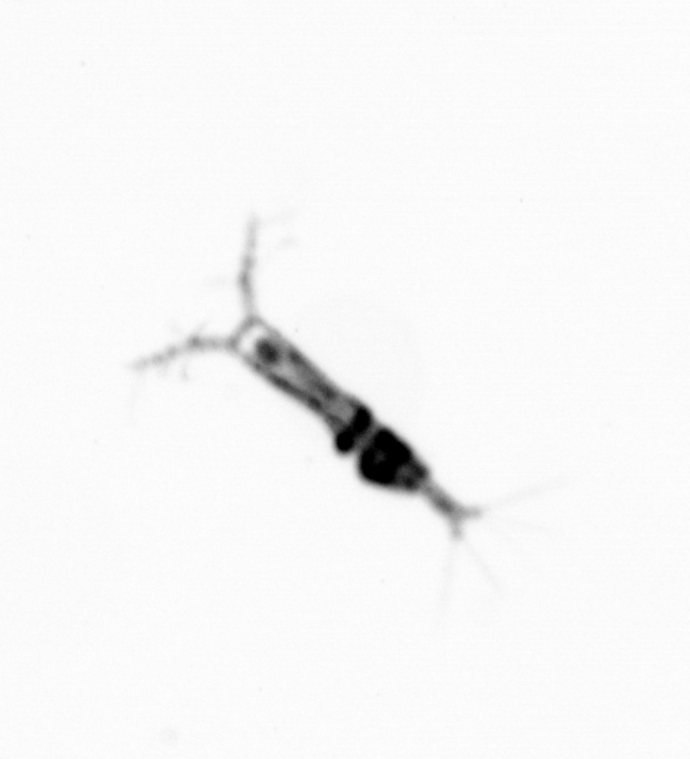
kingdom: Animalia
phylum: Arthropoda
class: Copepoda
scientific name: Copepoda
